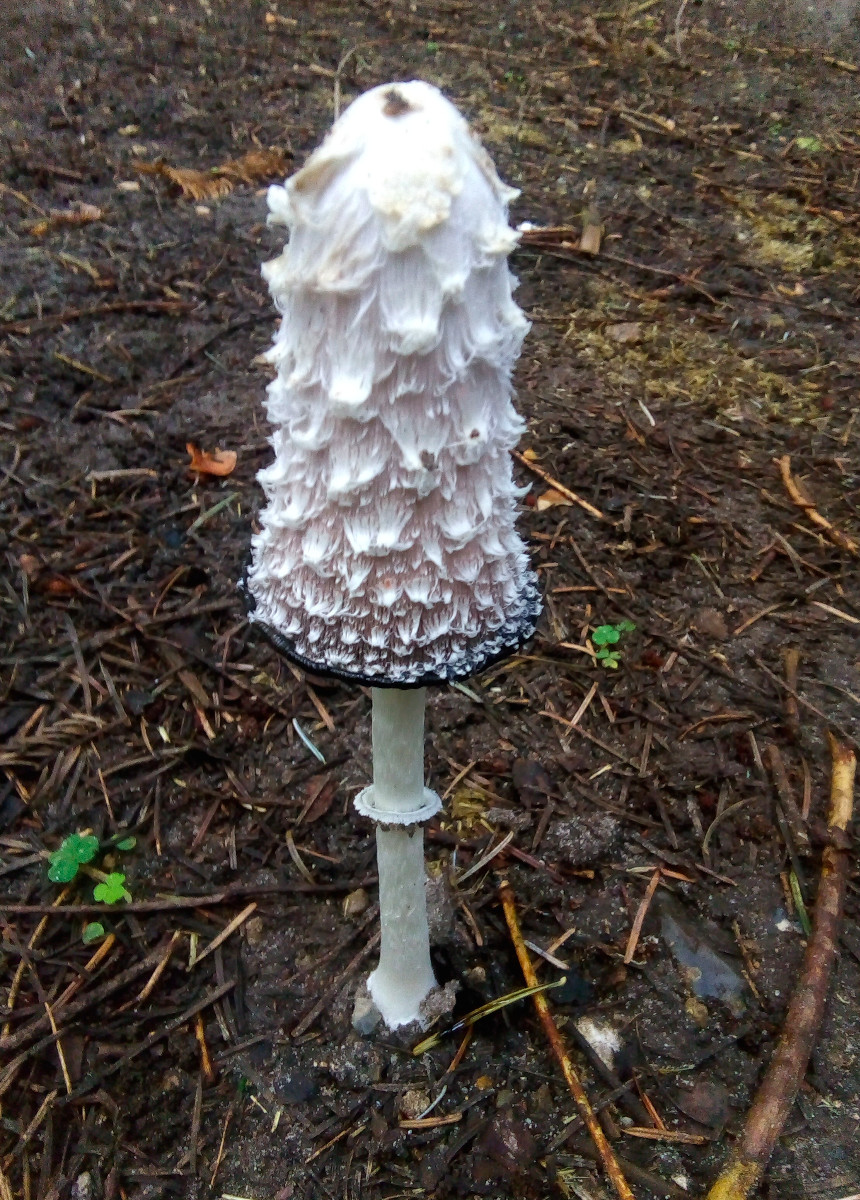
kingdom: Fungi
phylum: Basidiomycota
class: Agaricomycetes
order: Agaricales
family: Agaricaceae
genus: Coprinus
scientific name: Coprinus comatus
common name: stor parykhat
